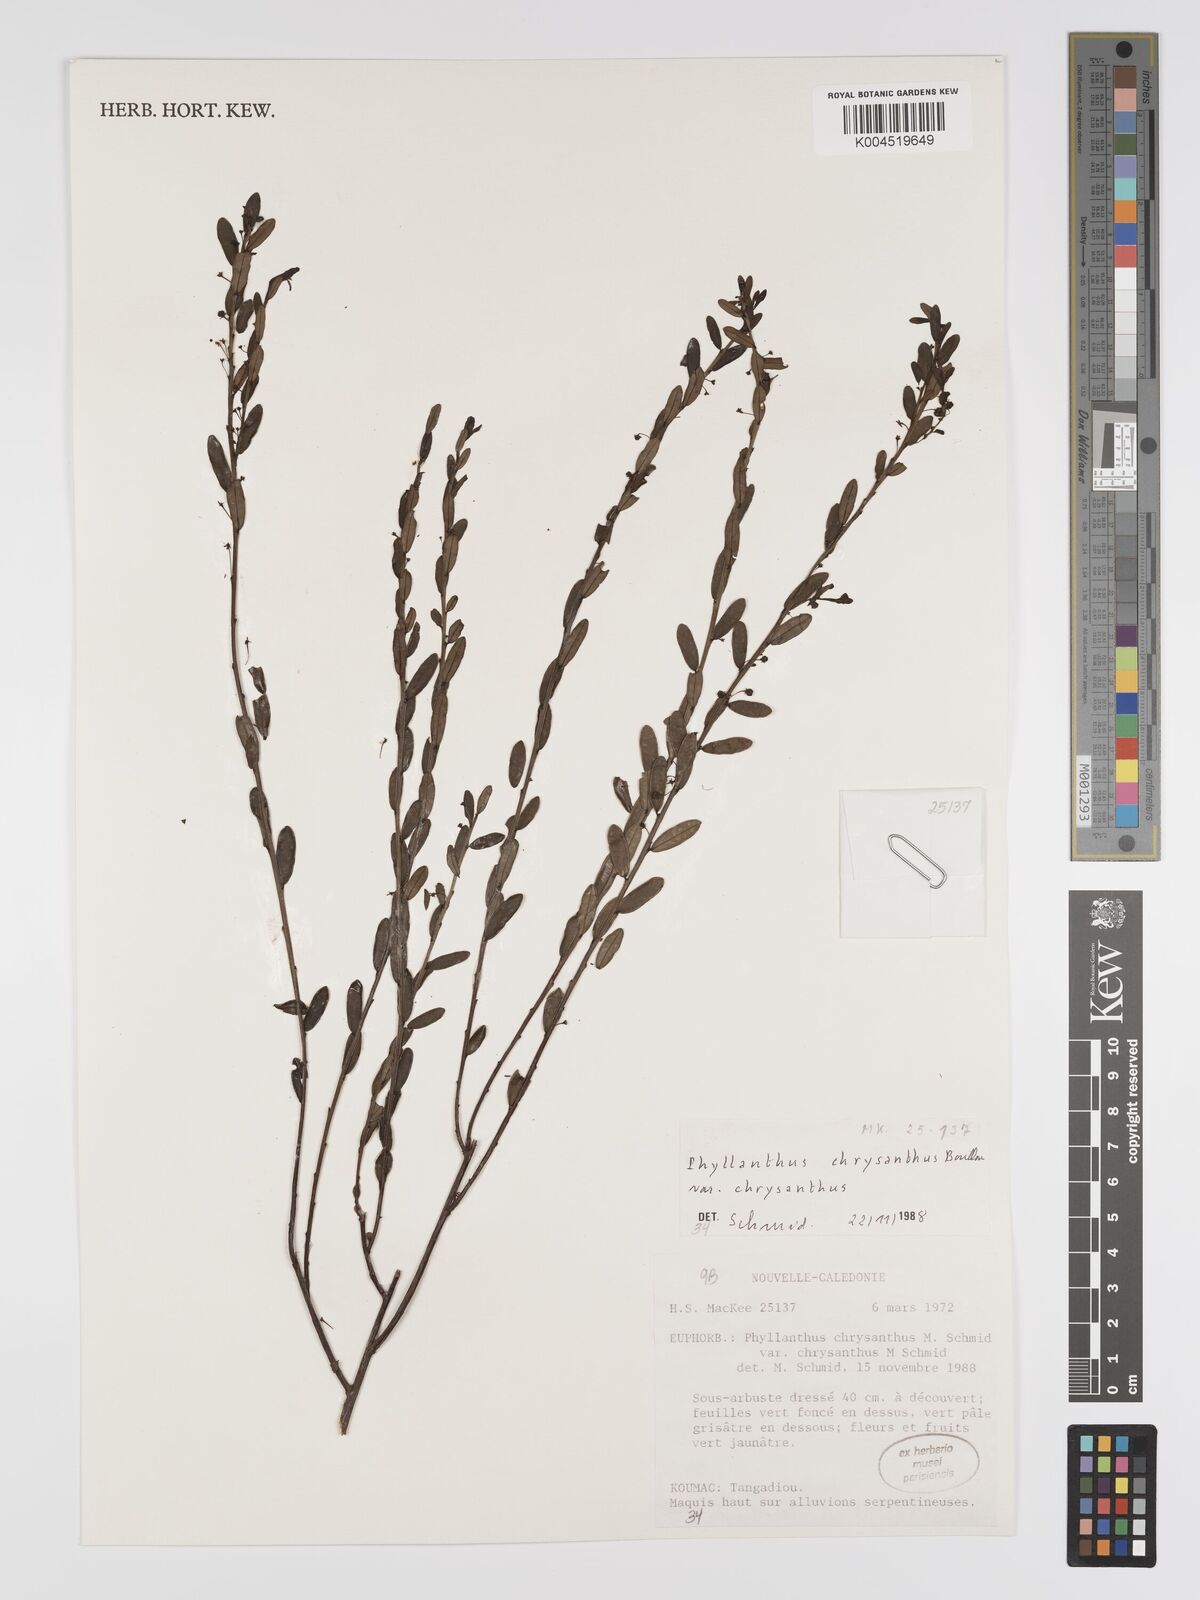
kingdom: Plantae
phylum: Tracheophyta
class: Magnoliopsida
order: Malpighiales
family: Phyllanthaceae
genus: Phyllanthus
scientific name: Phyllanthus chrysanthus
